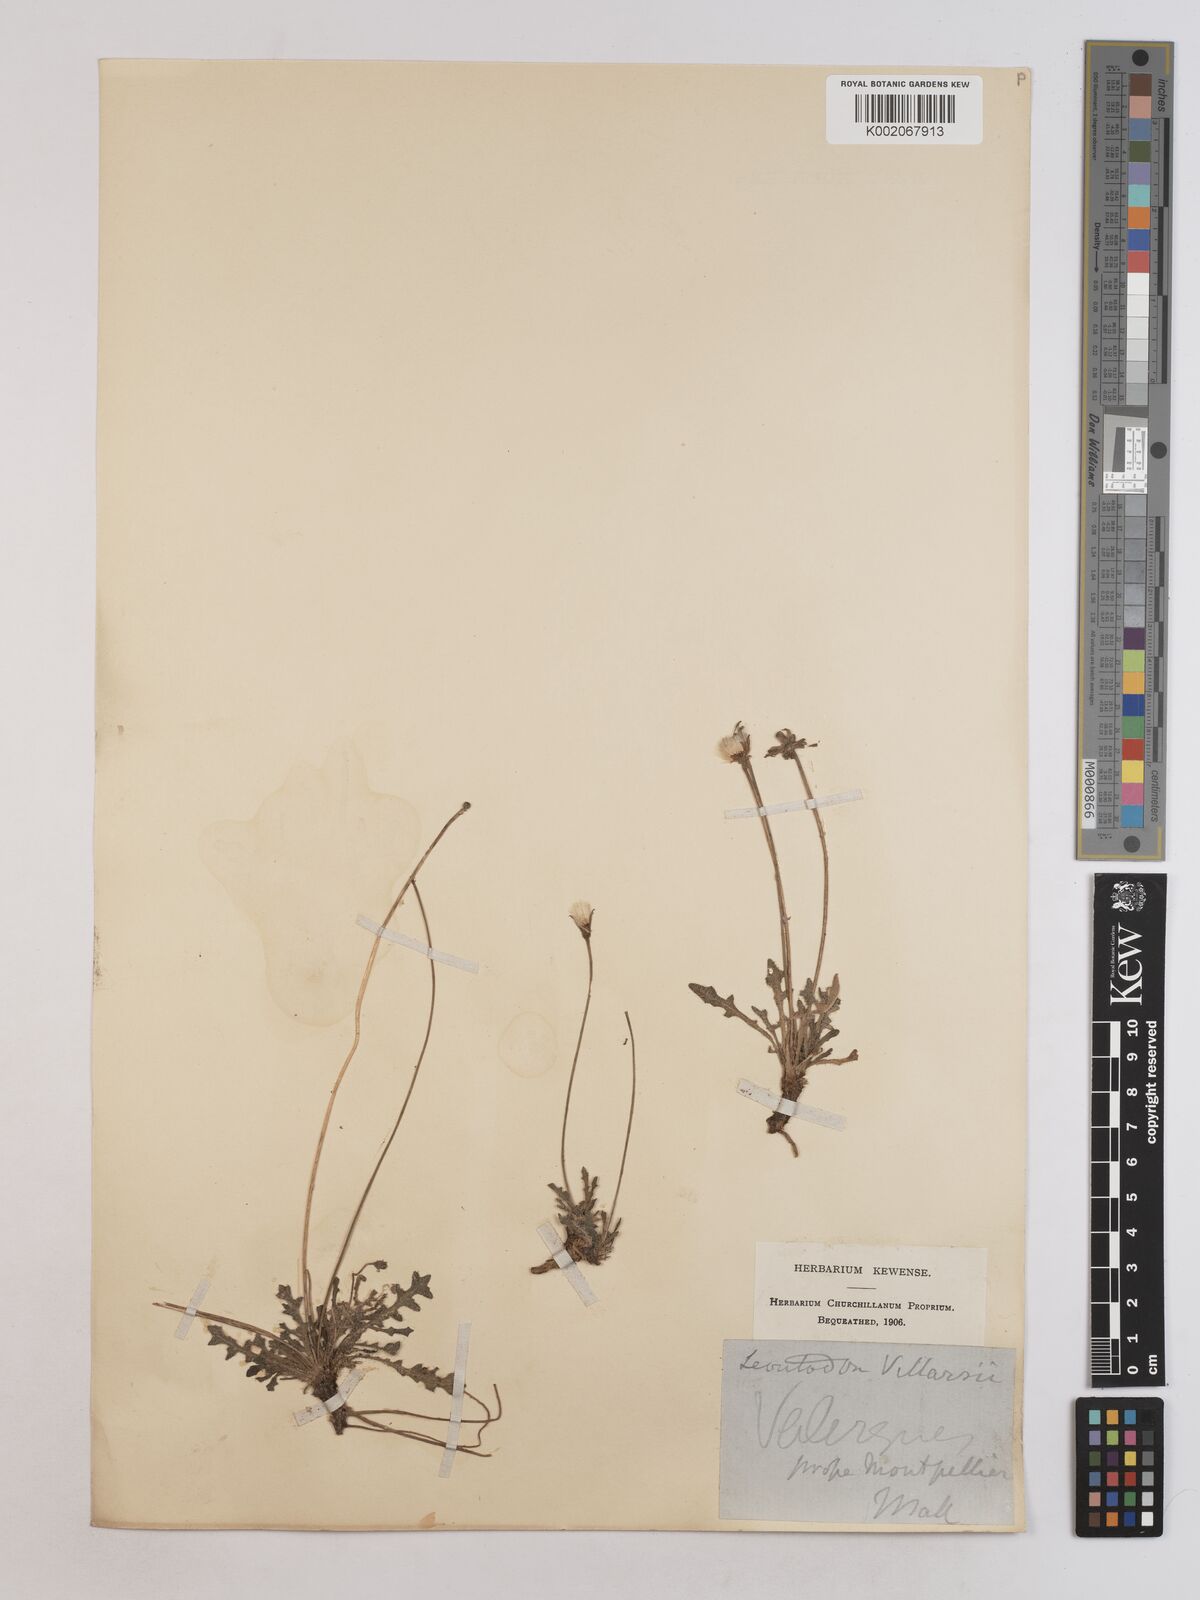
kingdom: Plantae
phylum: Tracheophyta
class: Magnoliopsida
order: Asterales
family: Asteraceae
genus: Leontodon
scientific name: Leontodon hirtus
